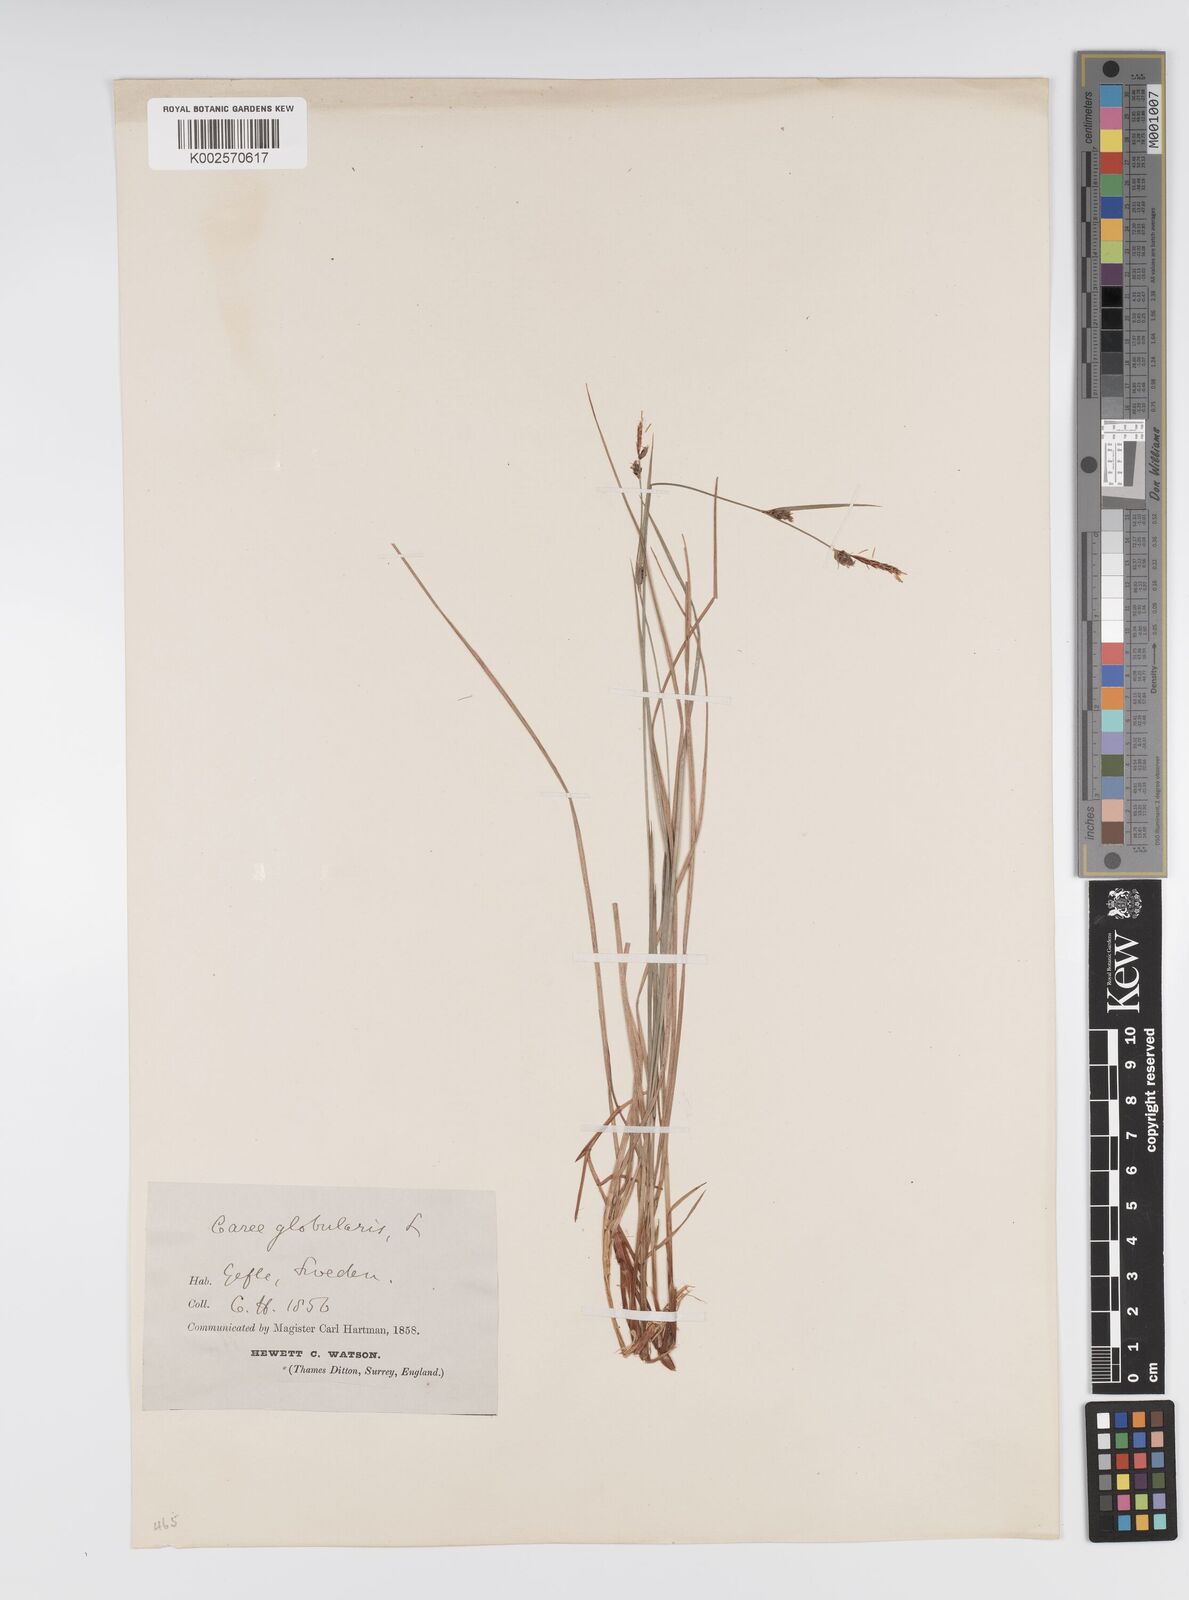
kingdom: Plantae
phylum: Tracheophyta
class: Liliopsida
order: Poales
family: Cyperaceae
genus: Carex
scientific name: Carex globularis
